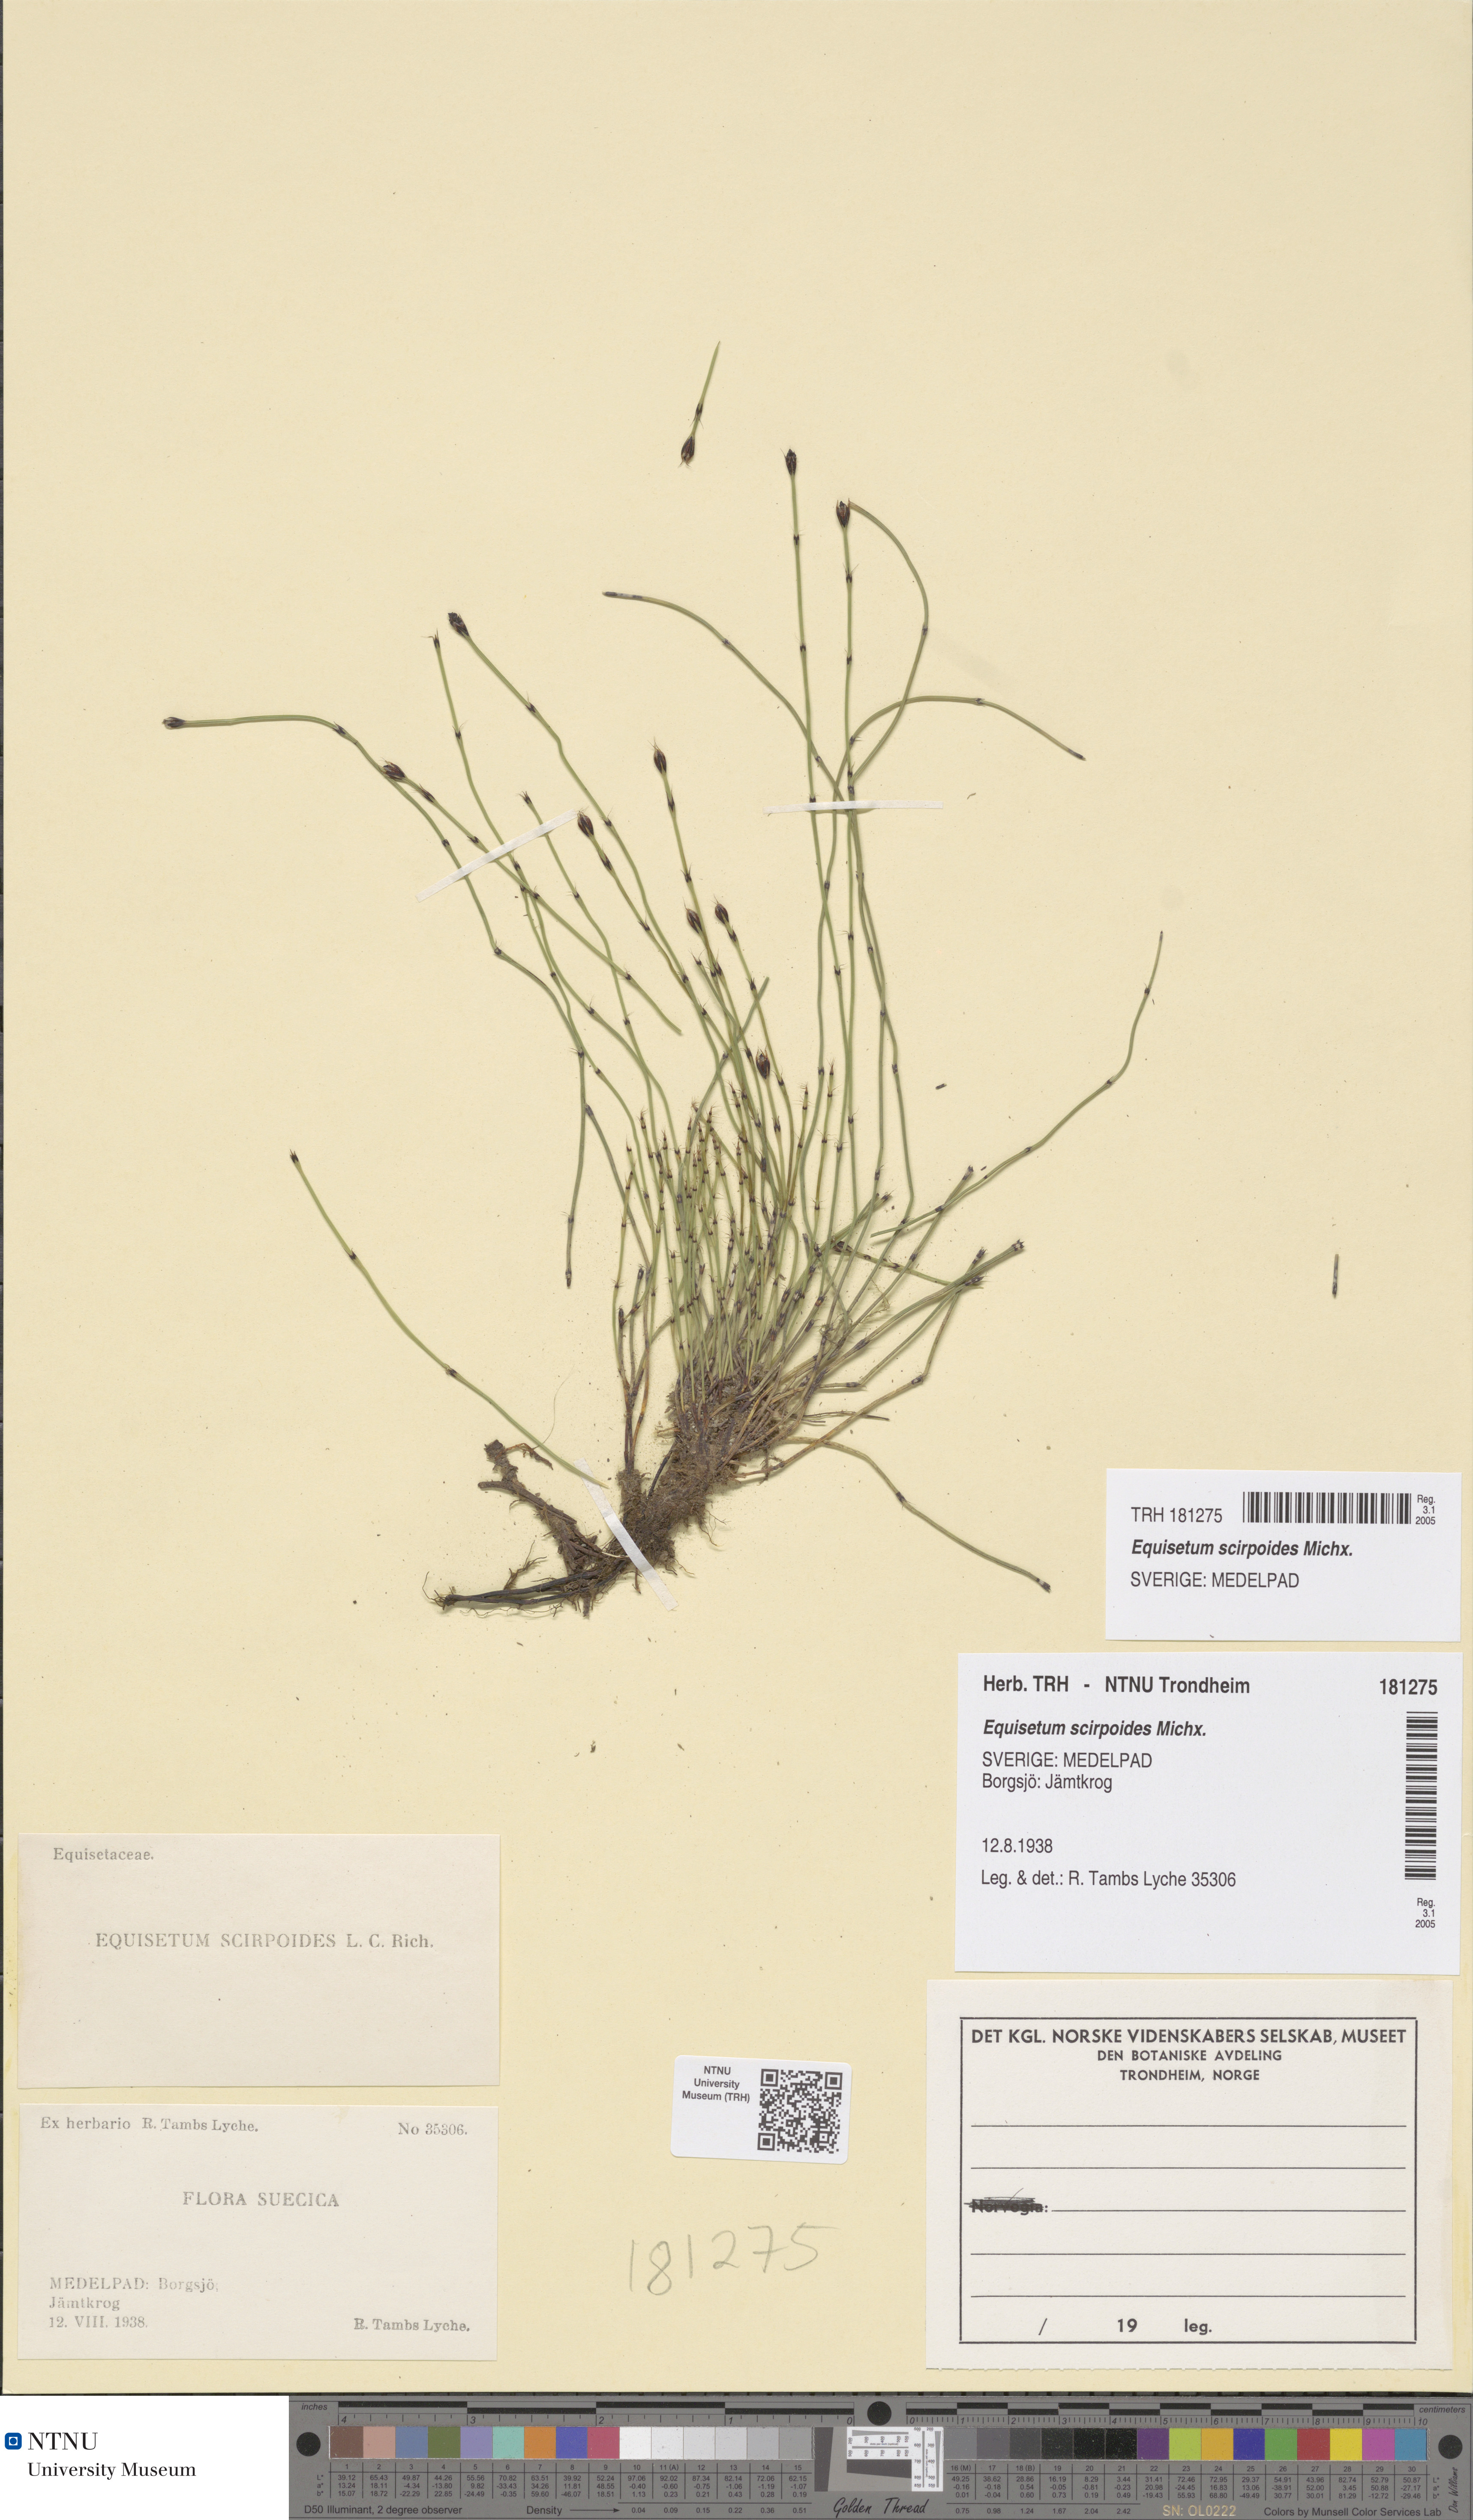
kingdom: Plantae
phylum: Tracheophyta
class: Polypodiopsida
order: Equisetales
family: Equisetaceae
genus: Equisetum
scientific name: Equisetum scirpoides
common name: Delicate horsetail
